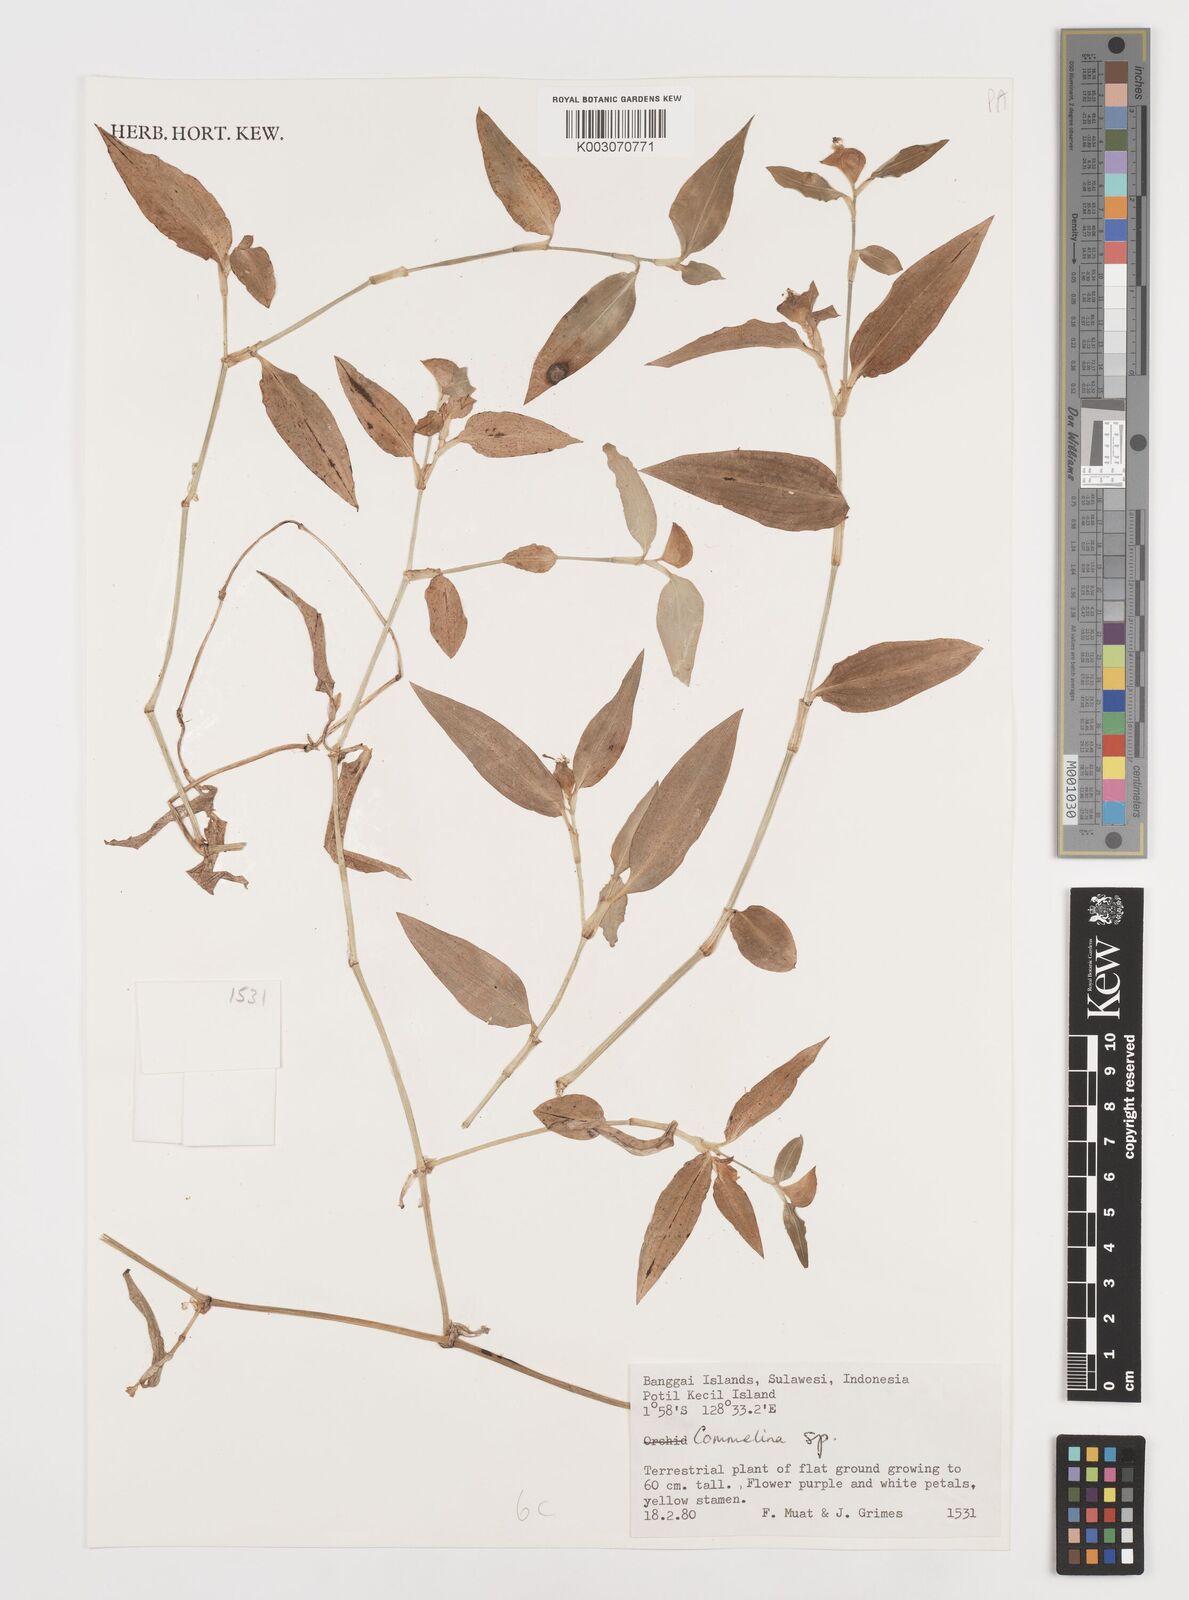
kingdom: Plantae
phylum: Tracheophyta
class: Liliopsida
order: Commelinales
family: Commelinaceae
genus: Commelina
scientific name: Commelina
